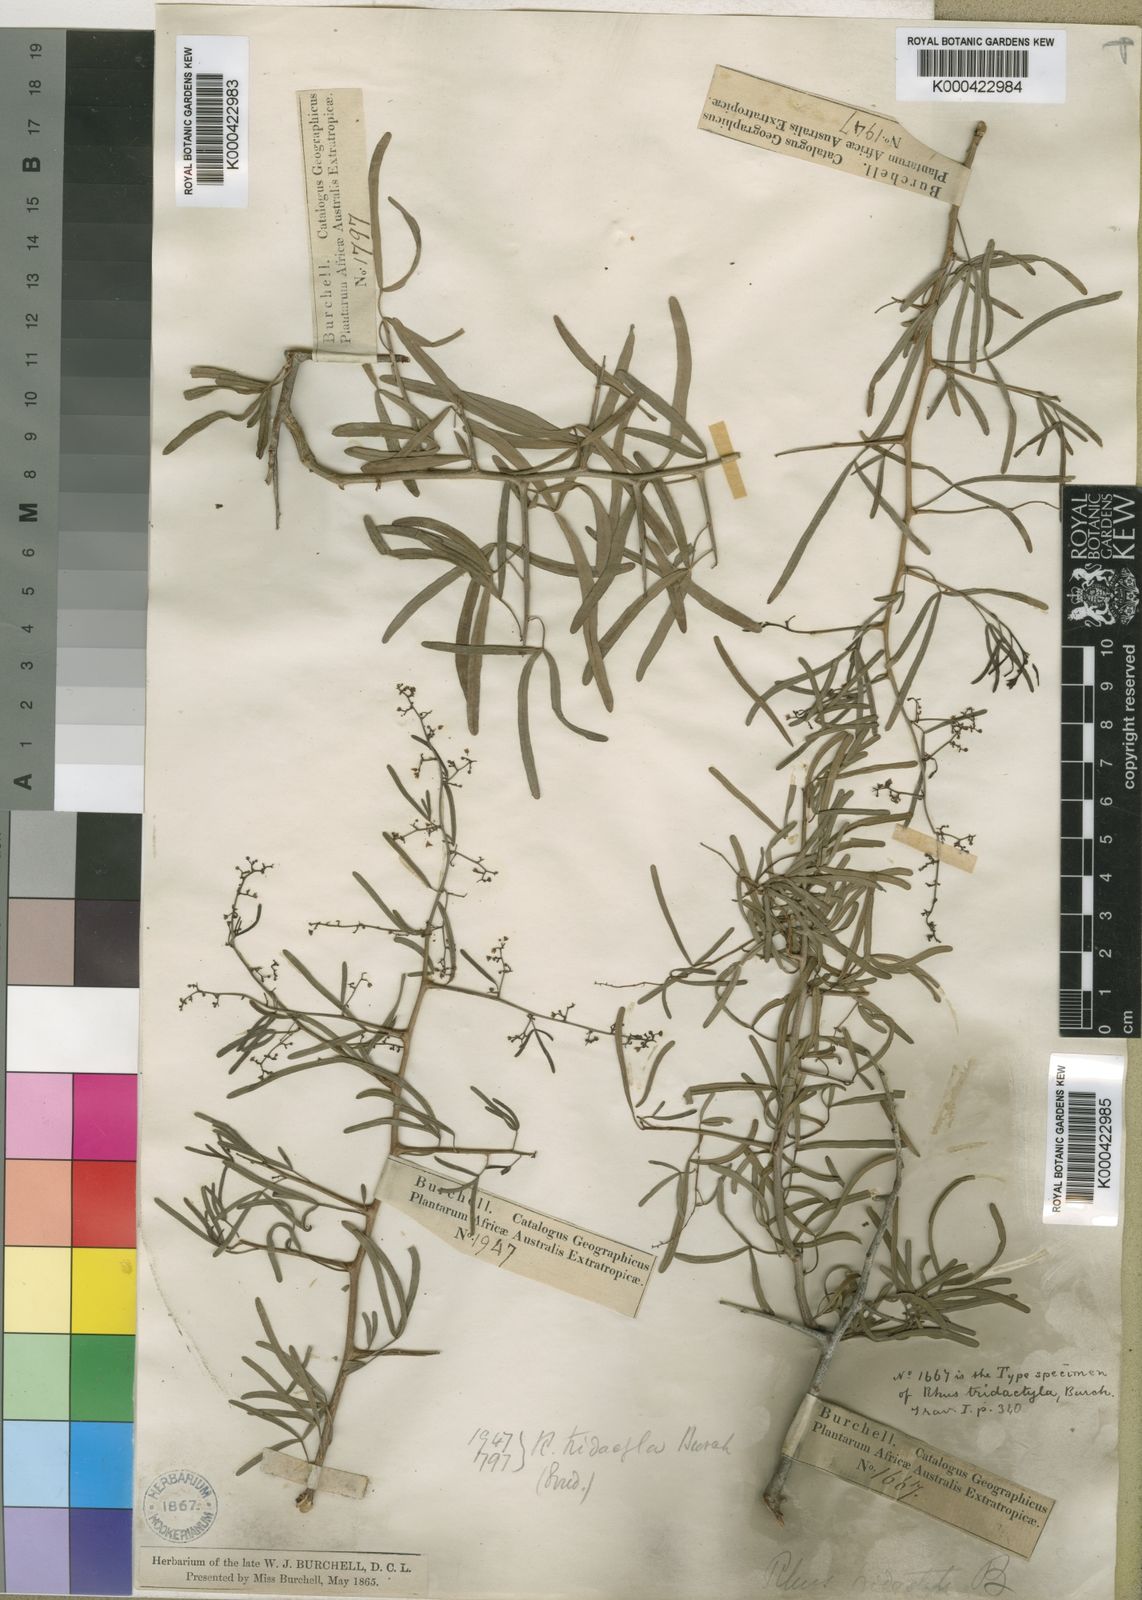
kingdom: Plantae
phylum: Tracheophyta
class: Magnoliopsida
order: Sapindales
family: Anacardiaceae
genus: Searsia
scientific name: Searsia ciliata
